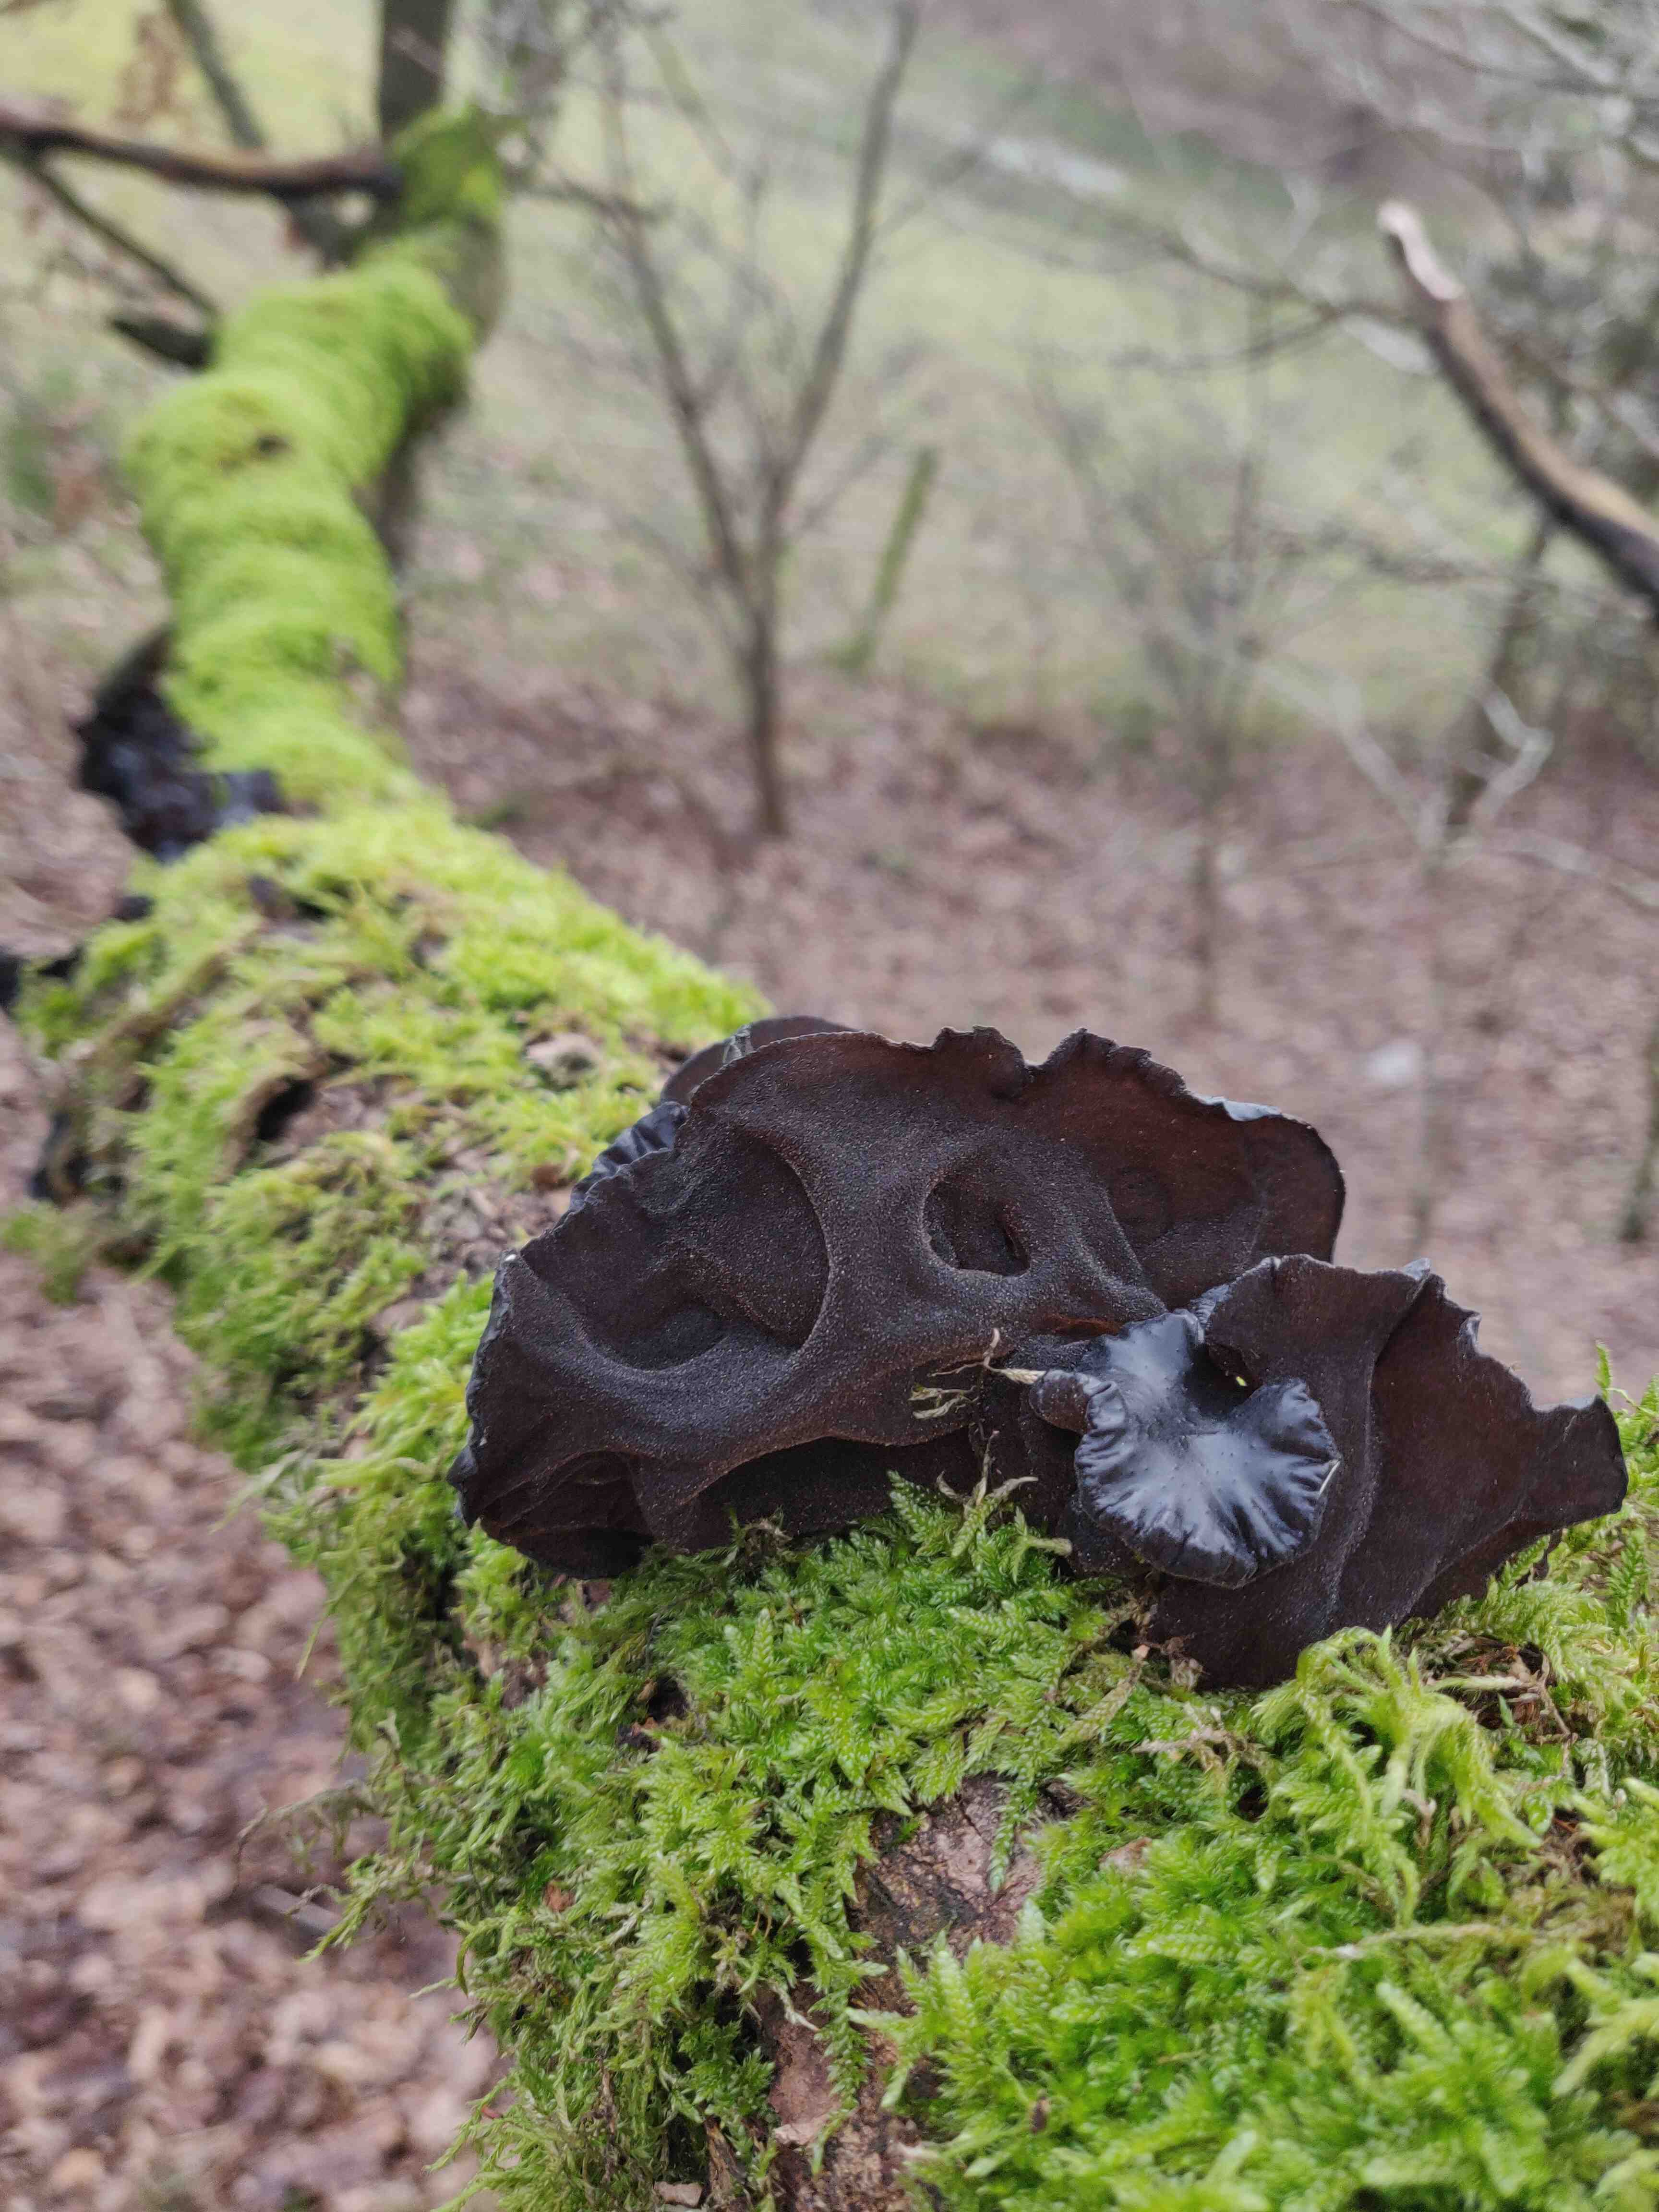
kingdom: Fungi
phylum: Basidiomycota
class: Agaricomycetes
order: Auriculariales
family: Auriculariaceae
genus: Exidia
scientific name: Exidia glandulosa
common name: ege-bævretop
